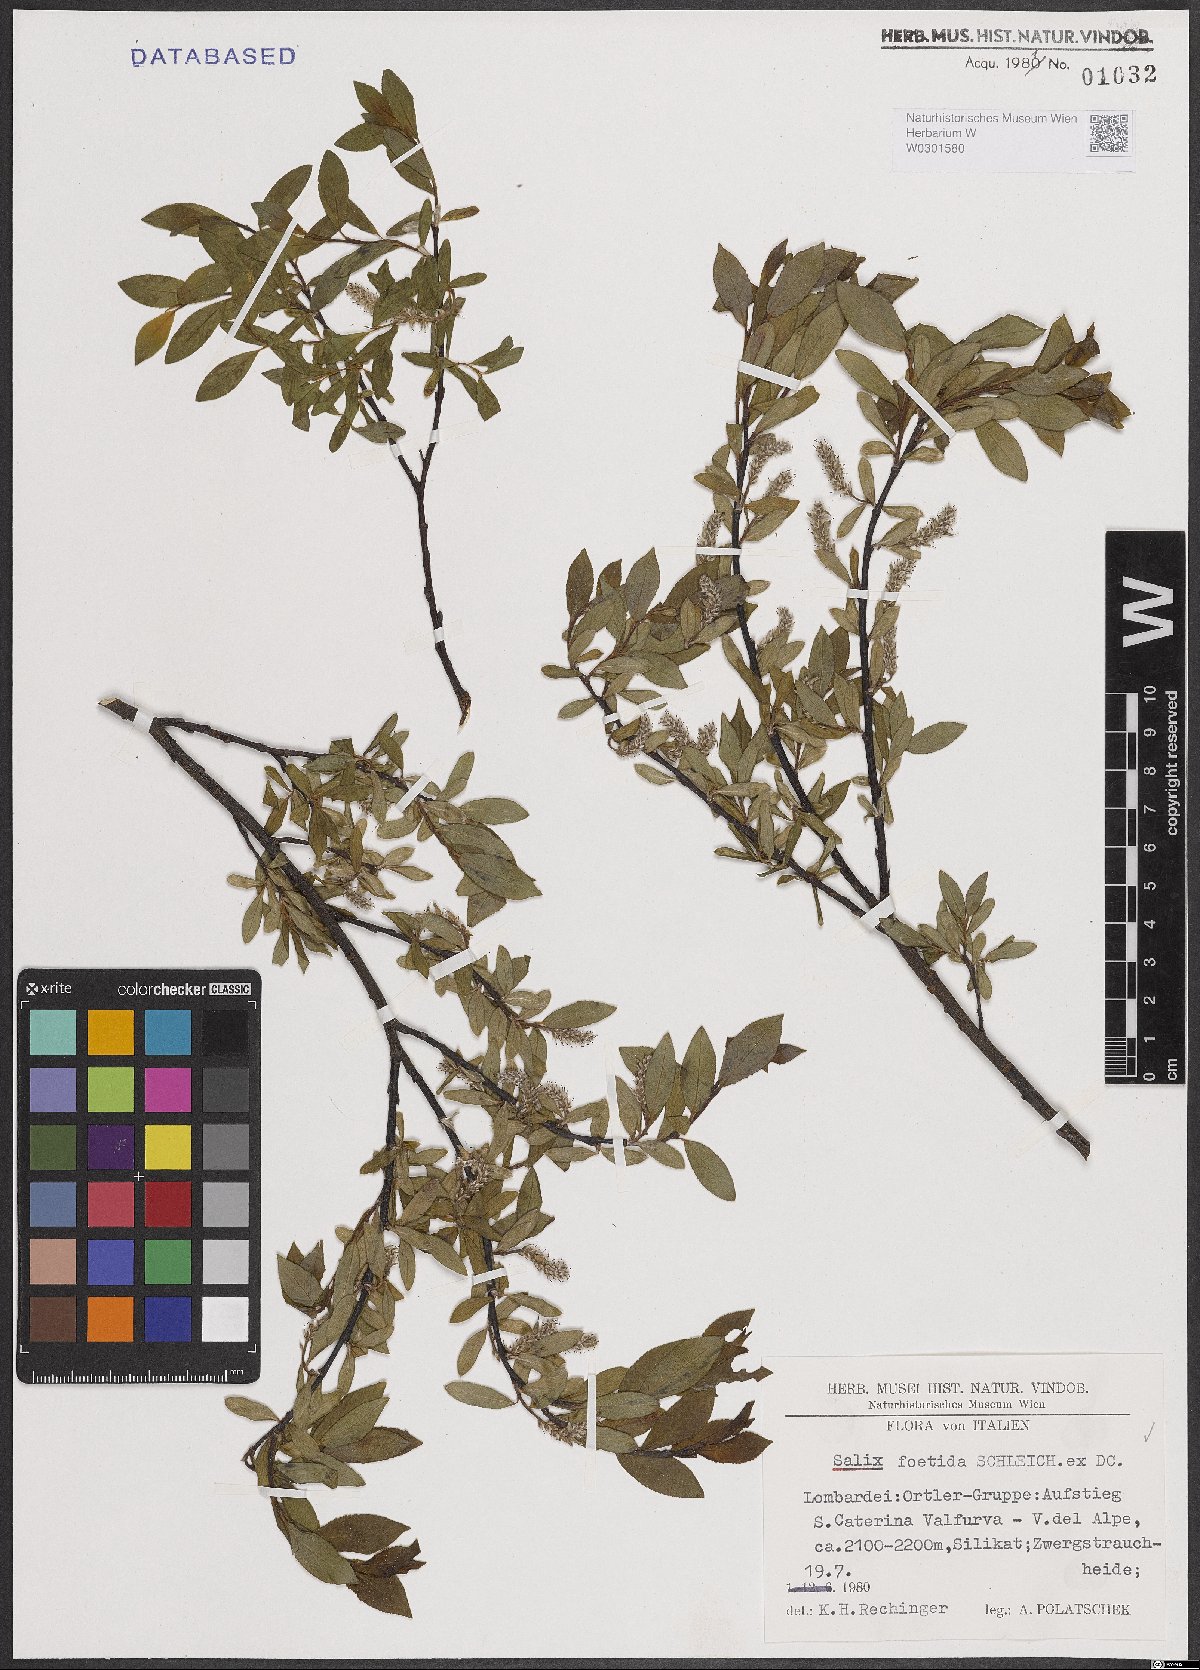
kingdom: Plantae
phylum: Tracheophyta
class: Magnoliopsida
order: Malpighiales
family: Salicaceae
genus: Salix
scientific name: Salix foetida
